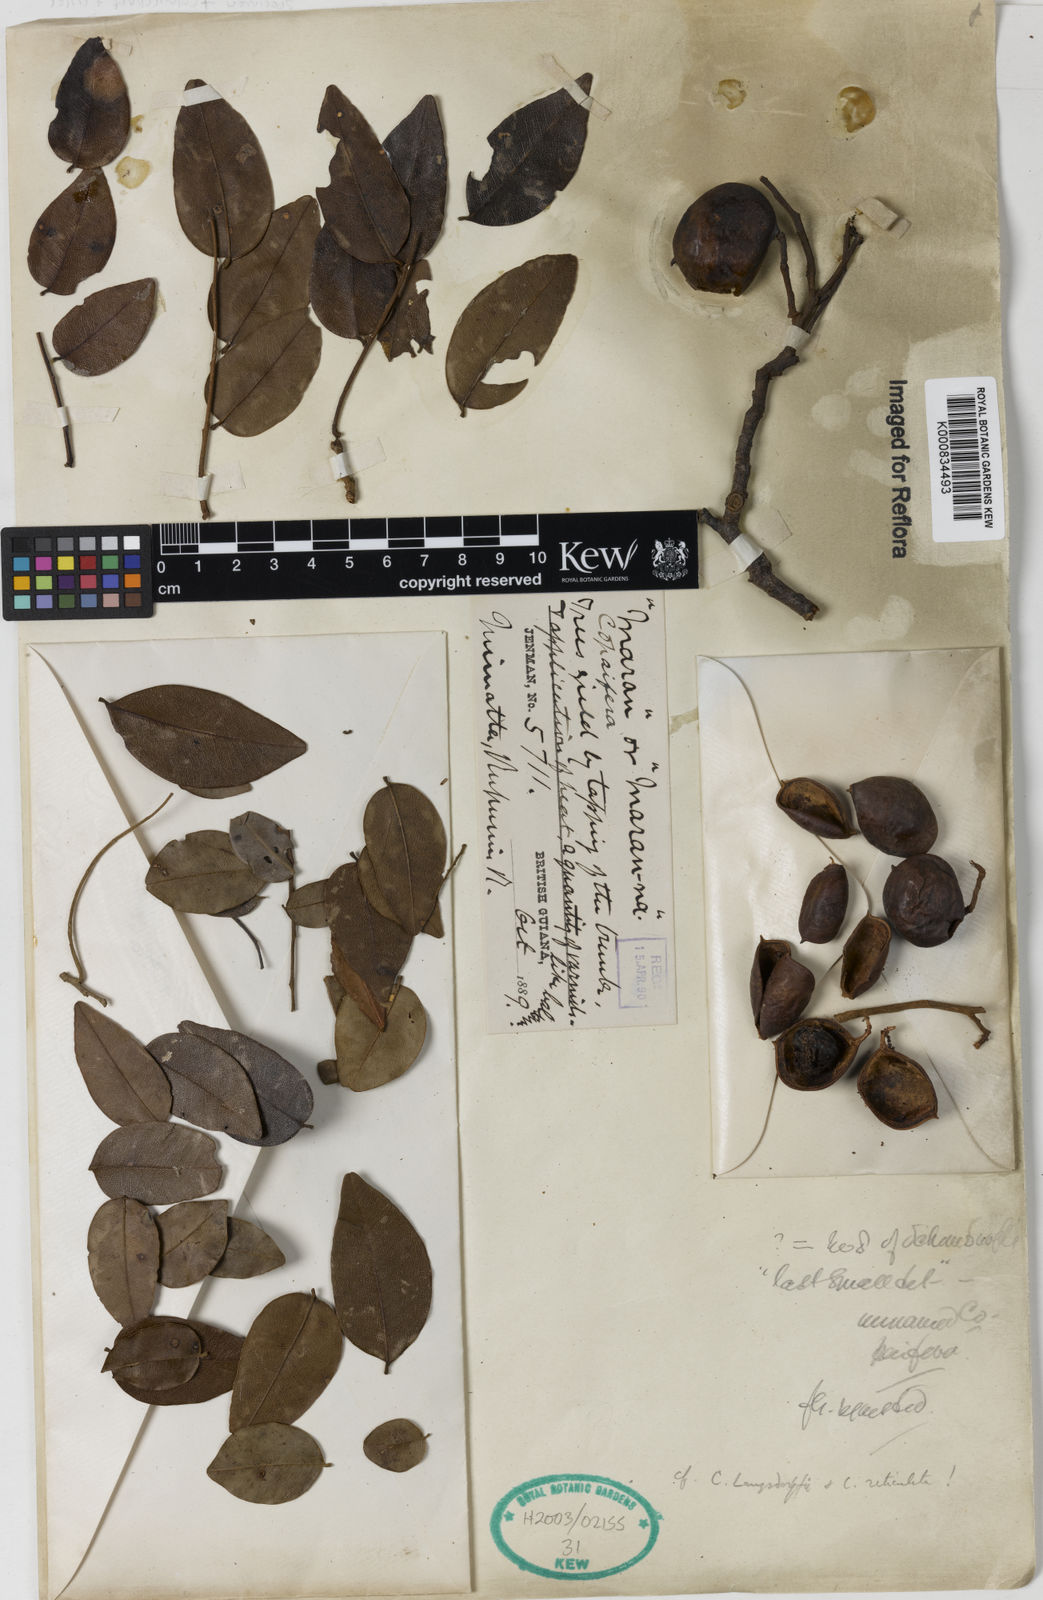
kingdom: Plantae
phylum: Tracheophyta
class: Magnoliopsida
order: Fabales
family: Fabaceae
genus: Copaifera
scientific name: Copaifera
